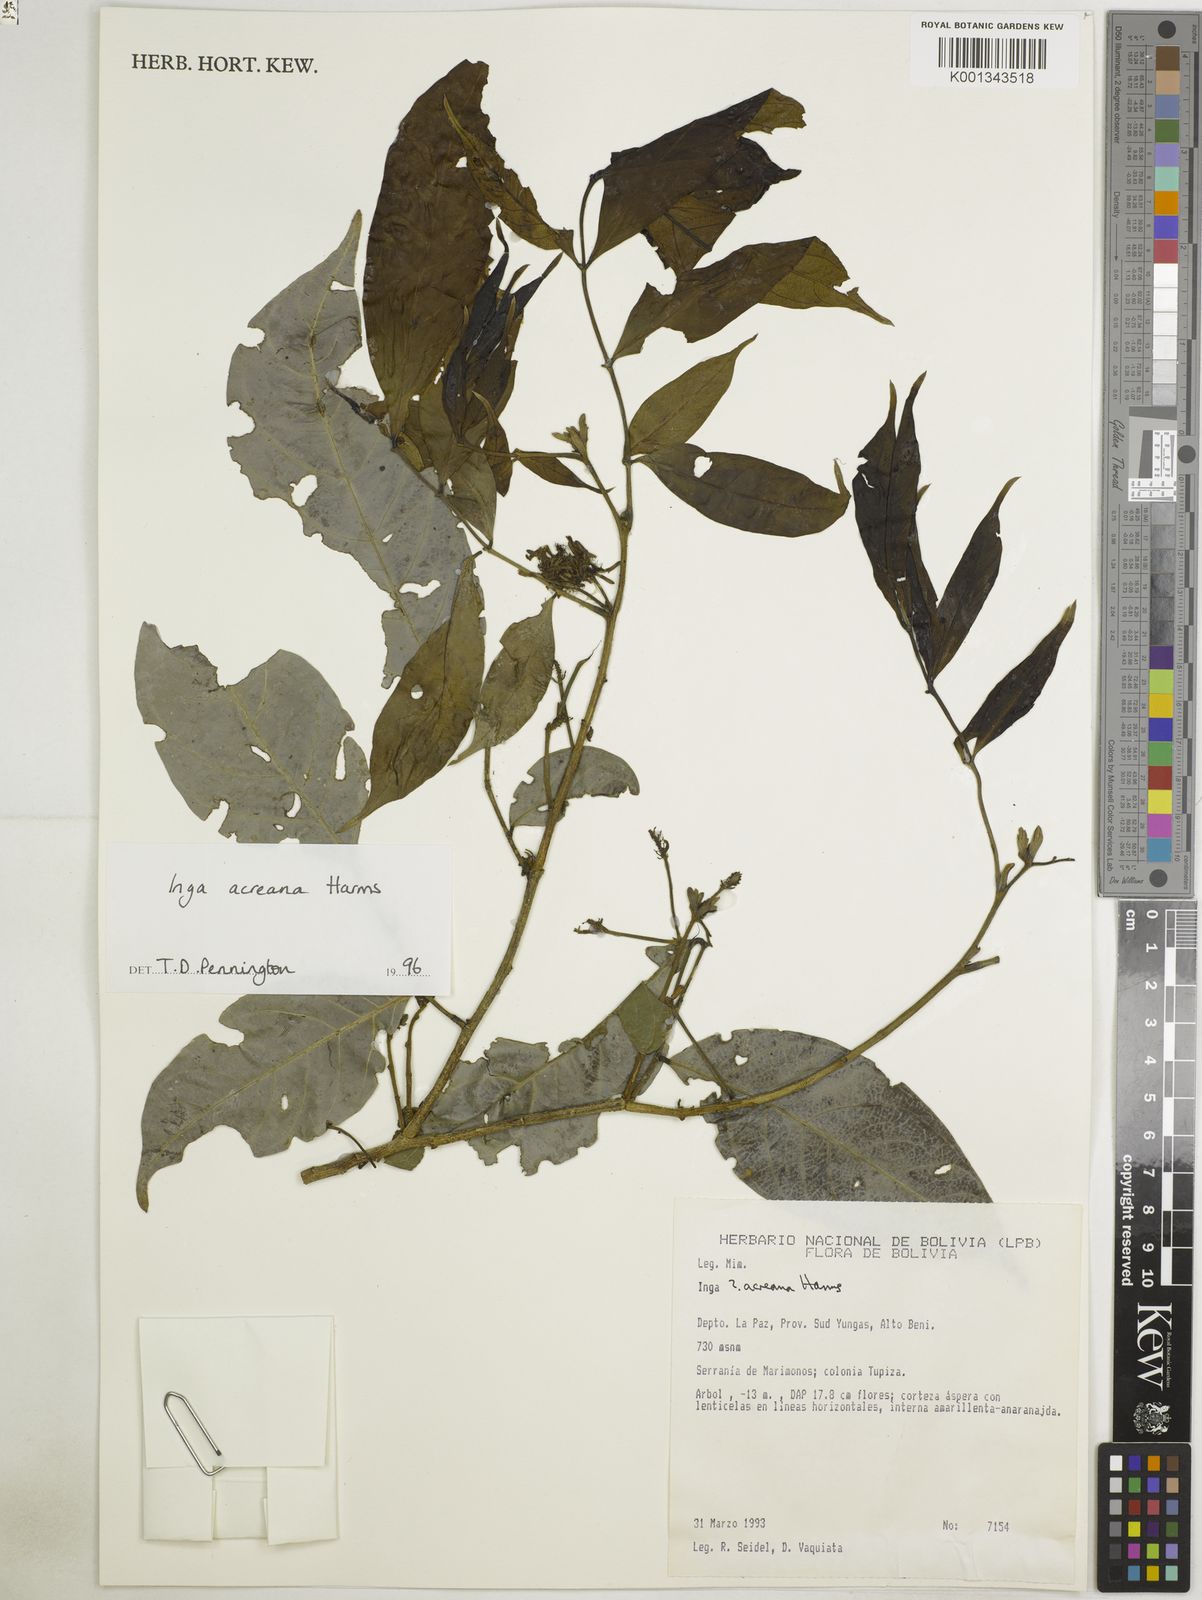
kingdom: Plantae
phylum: Tracheophyta
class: Magnoliopsida
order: Fabales
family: Fabaceae
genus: Inga
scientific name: Inga acreana
